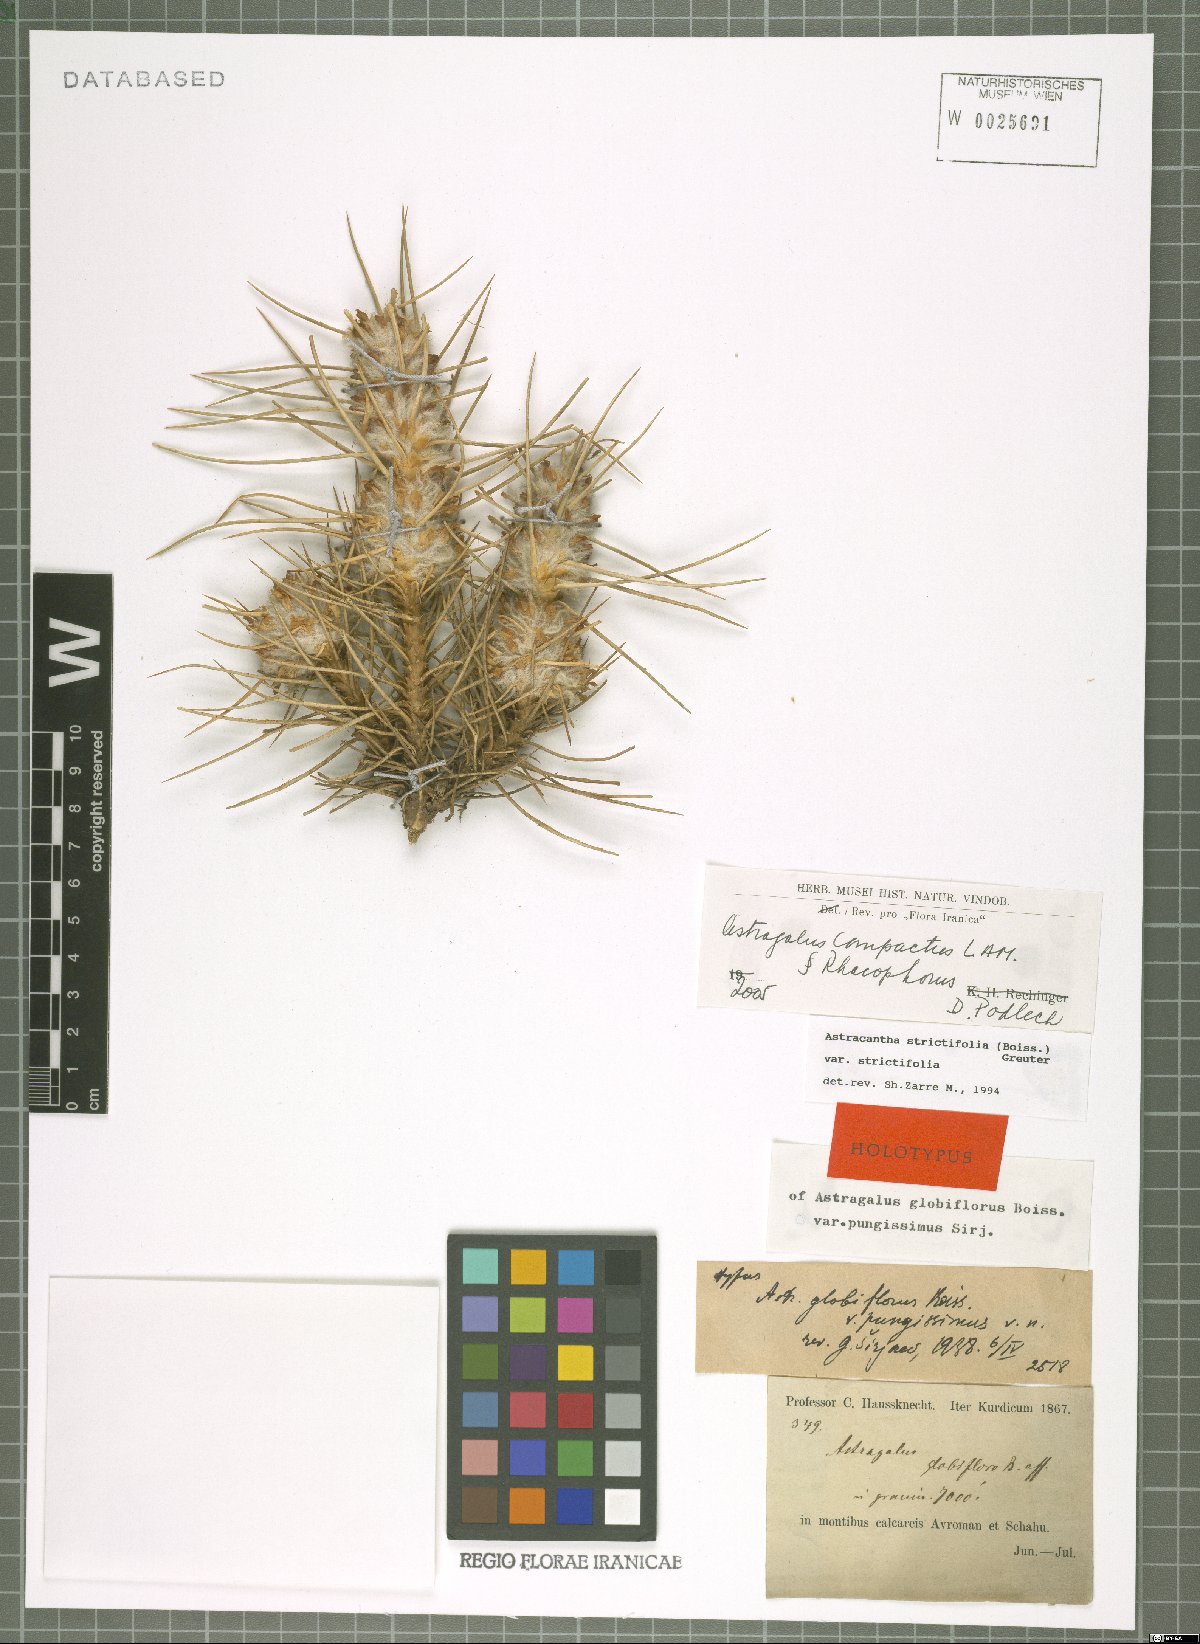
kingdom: Plantae
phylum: Tracheophyta
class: Magnoliopsida
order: Fabales
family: Fabaceae
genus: Astragalus
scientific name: Astragalus compactus
